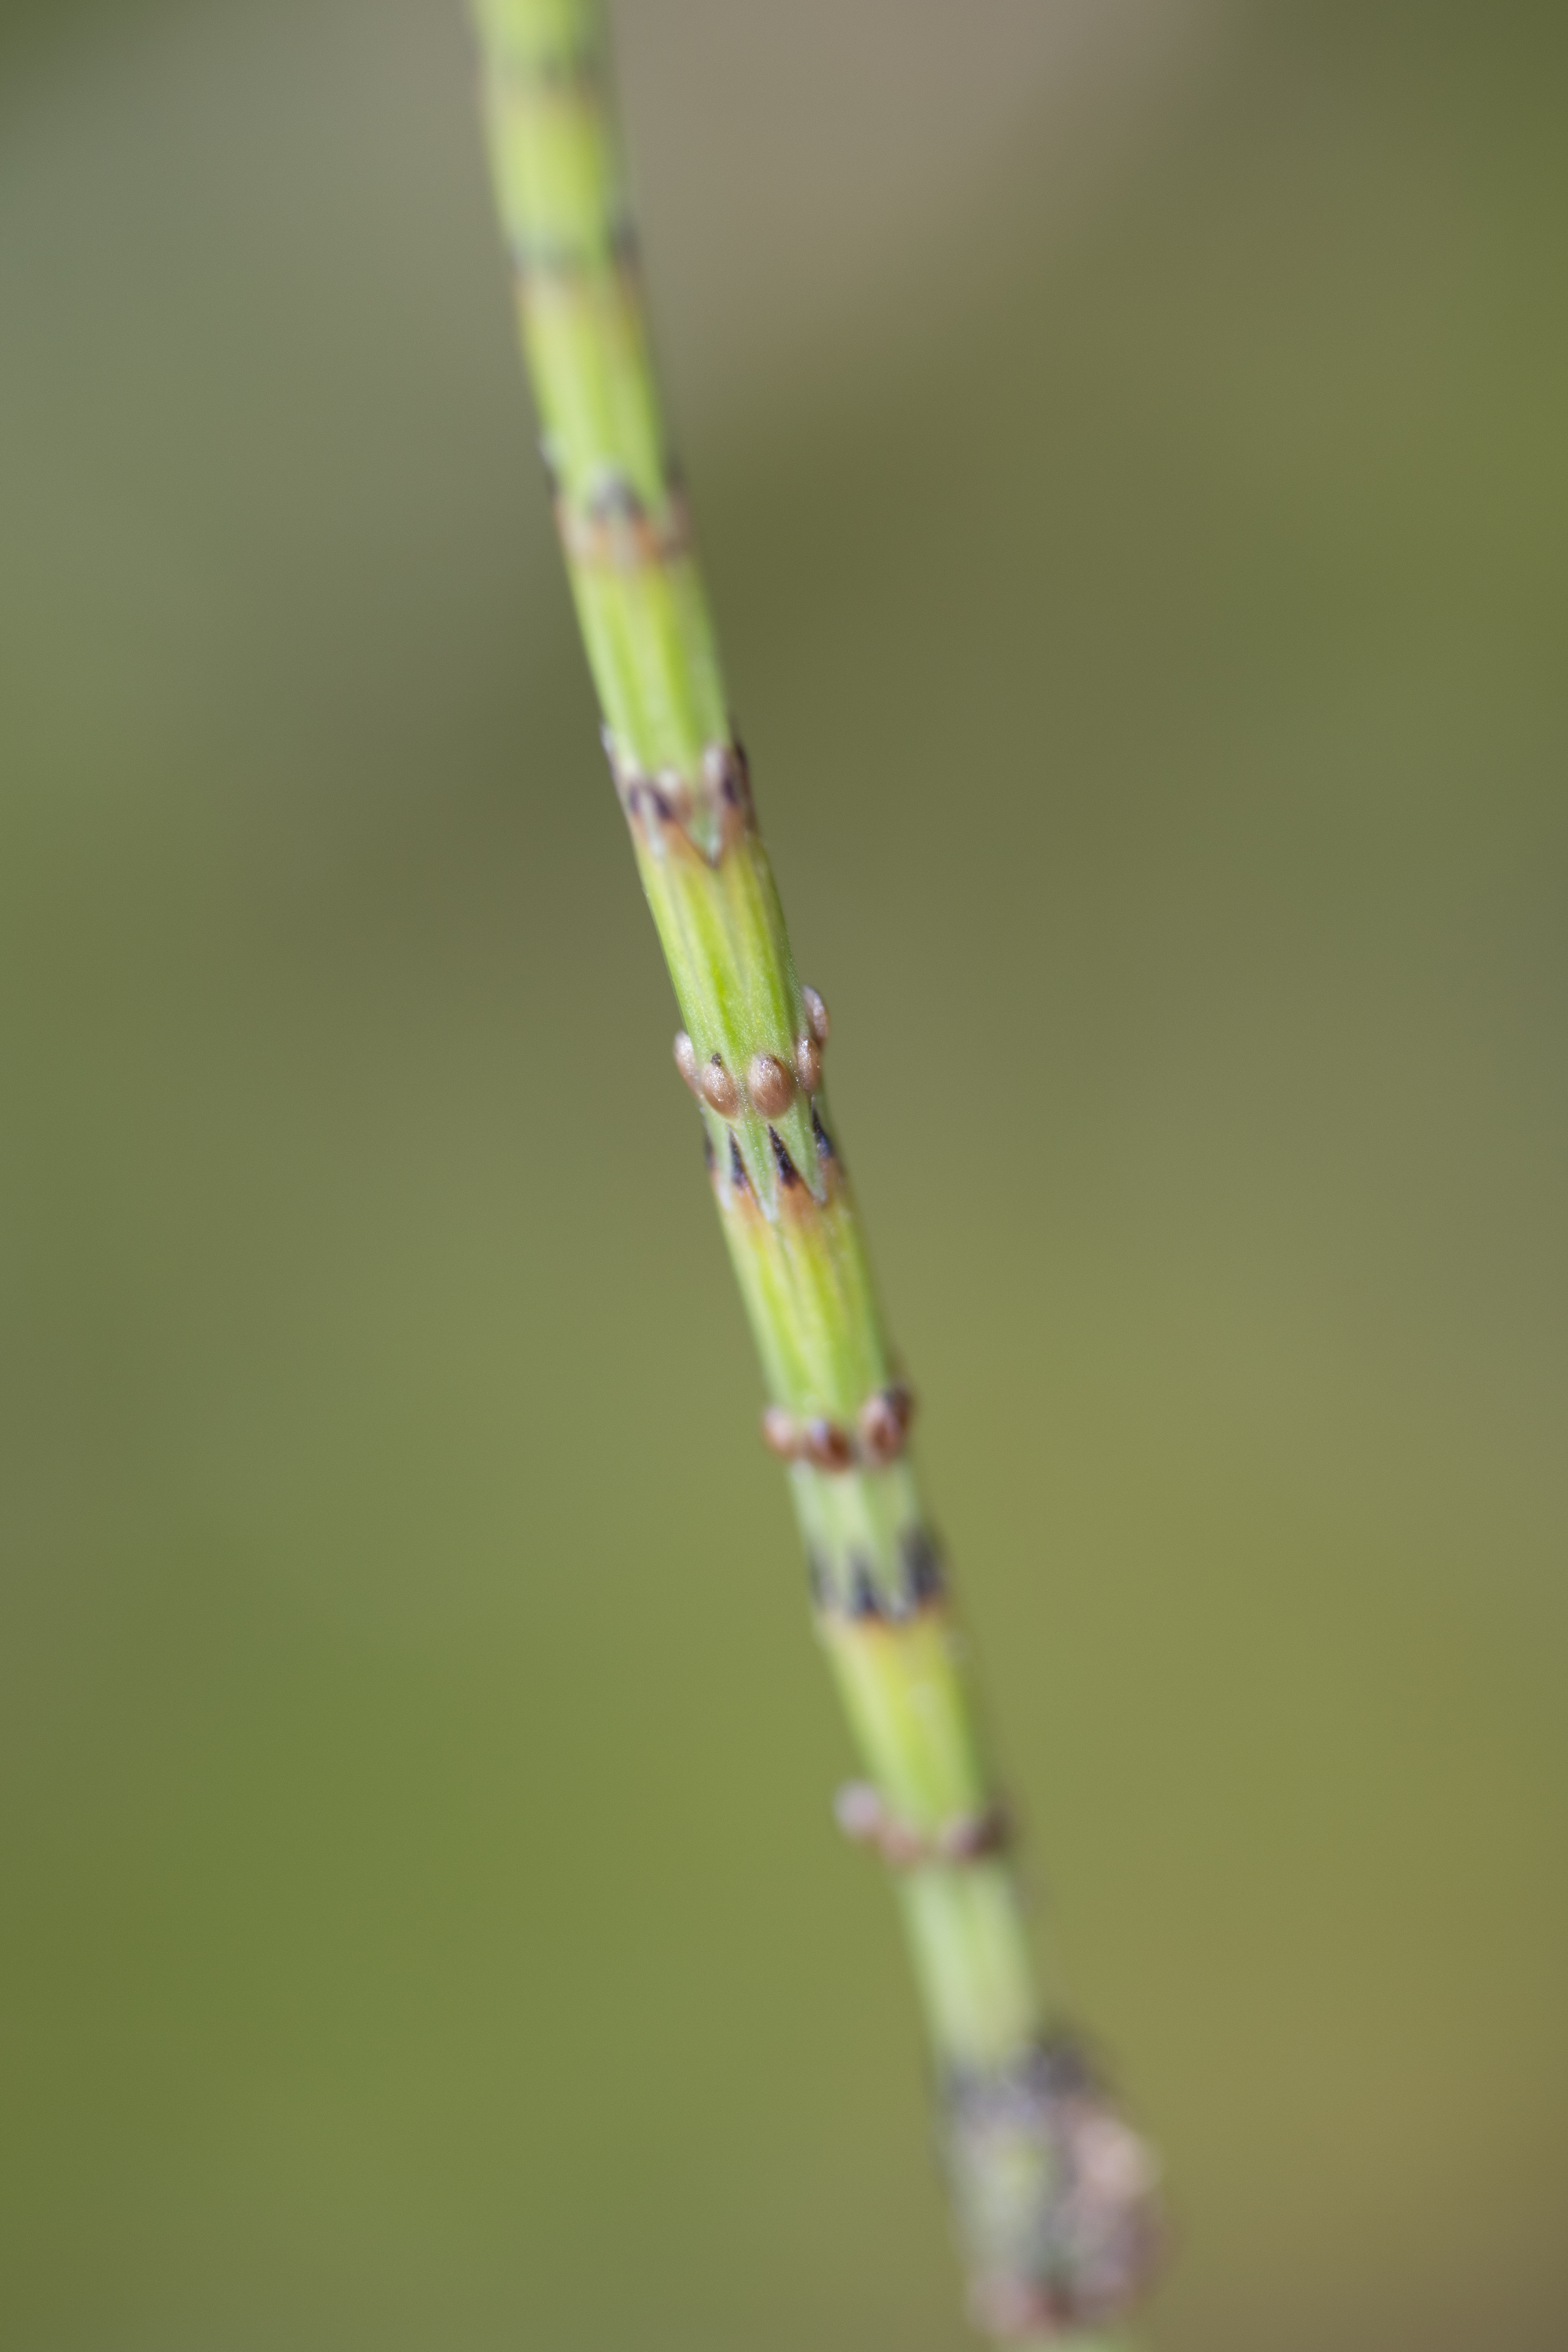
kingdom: Plantae
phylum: Tracheophyta
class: Polypodiopsida
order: Equisetales
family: Equisetaceae
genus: Equisetum
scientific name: Equisetum palustre
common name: Kær-padderok
